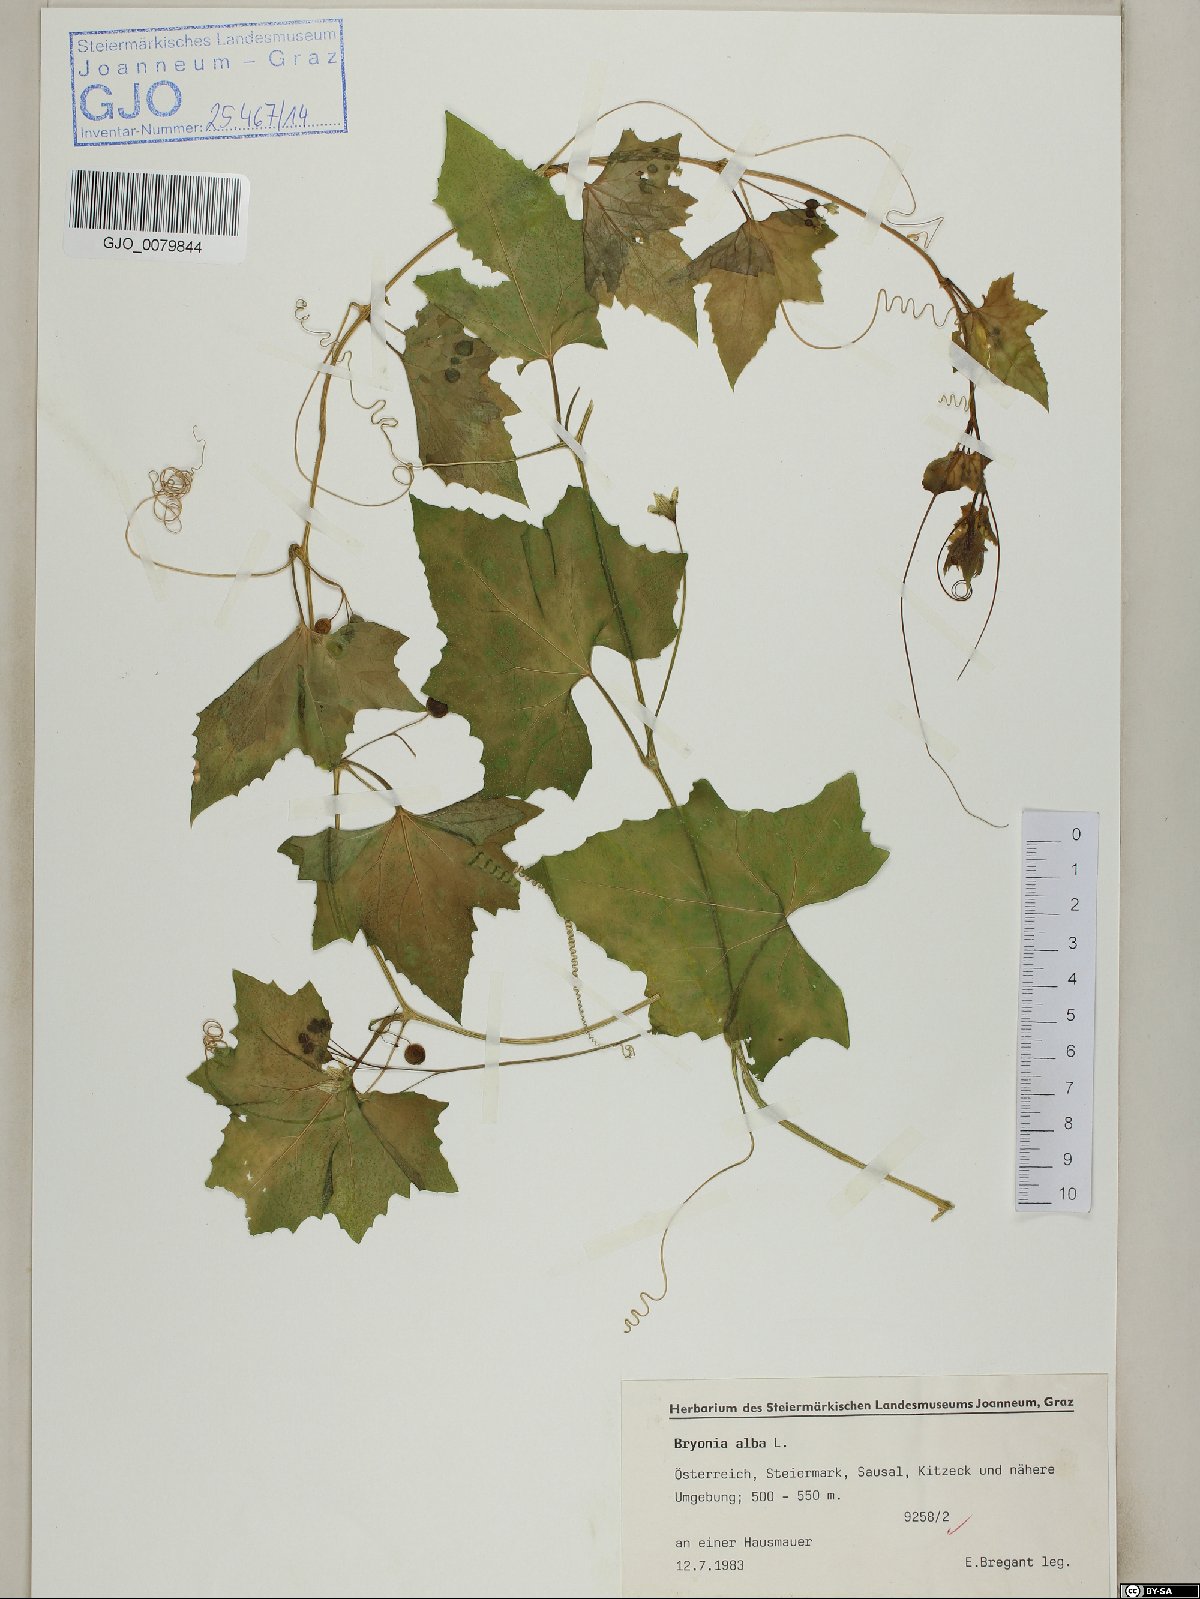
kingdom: Plantae
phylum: Tracheophyta
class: Magnoliopsida
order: Cucurbitales
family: Cucurbitaceae
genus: Bryonia
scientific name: Bryonia alba
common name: White bryony
